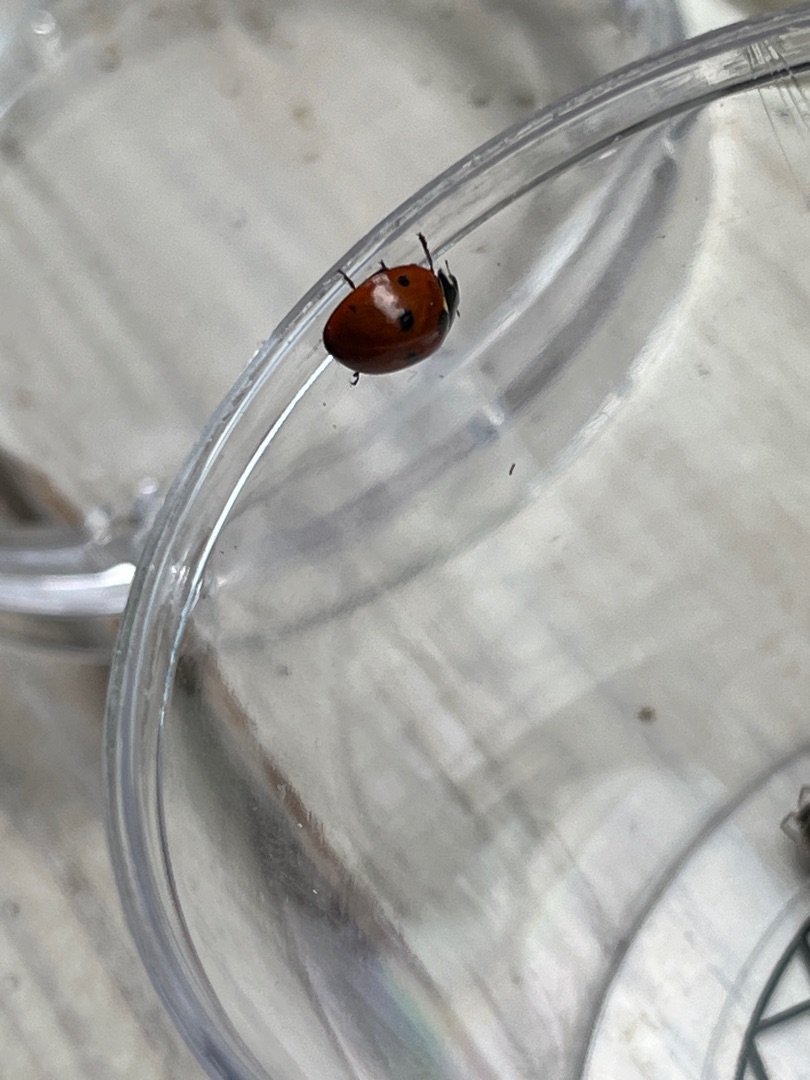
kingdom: Animalia
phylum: Arthropoda
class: Insecta
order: Coleoptera
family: Coccinellidae
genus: Coccinella
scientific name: Coccinella septempunctata
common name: Syvplettet mariehøne
